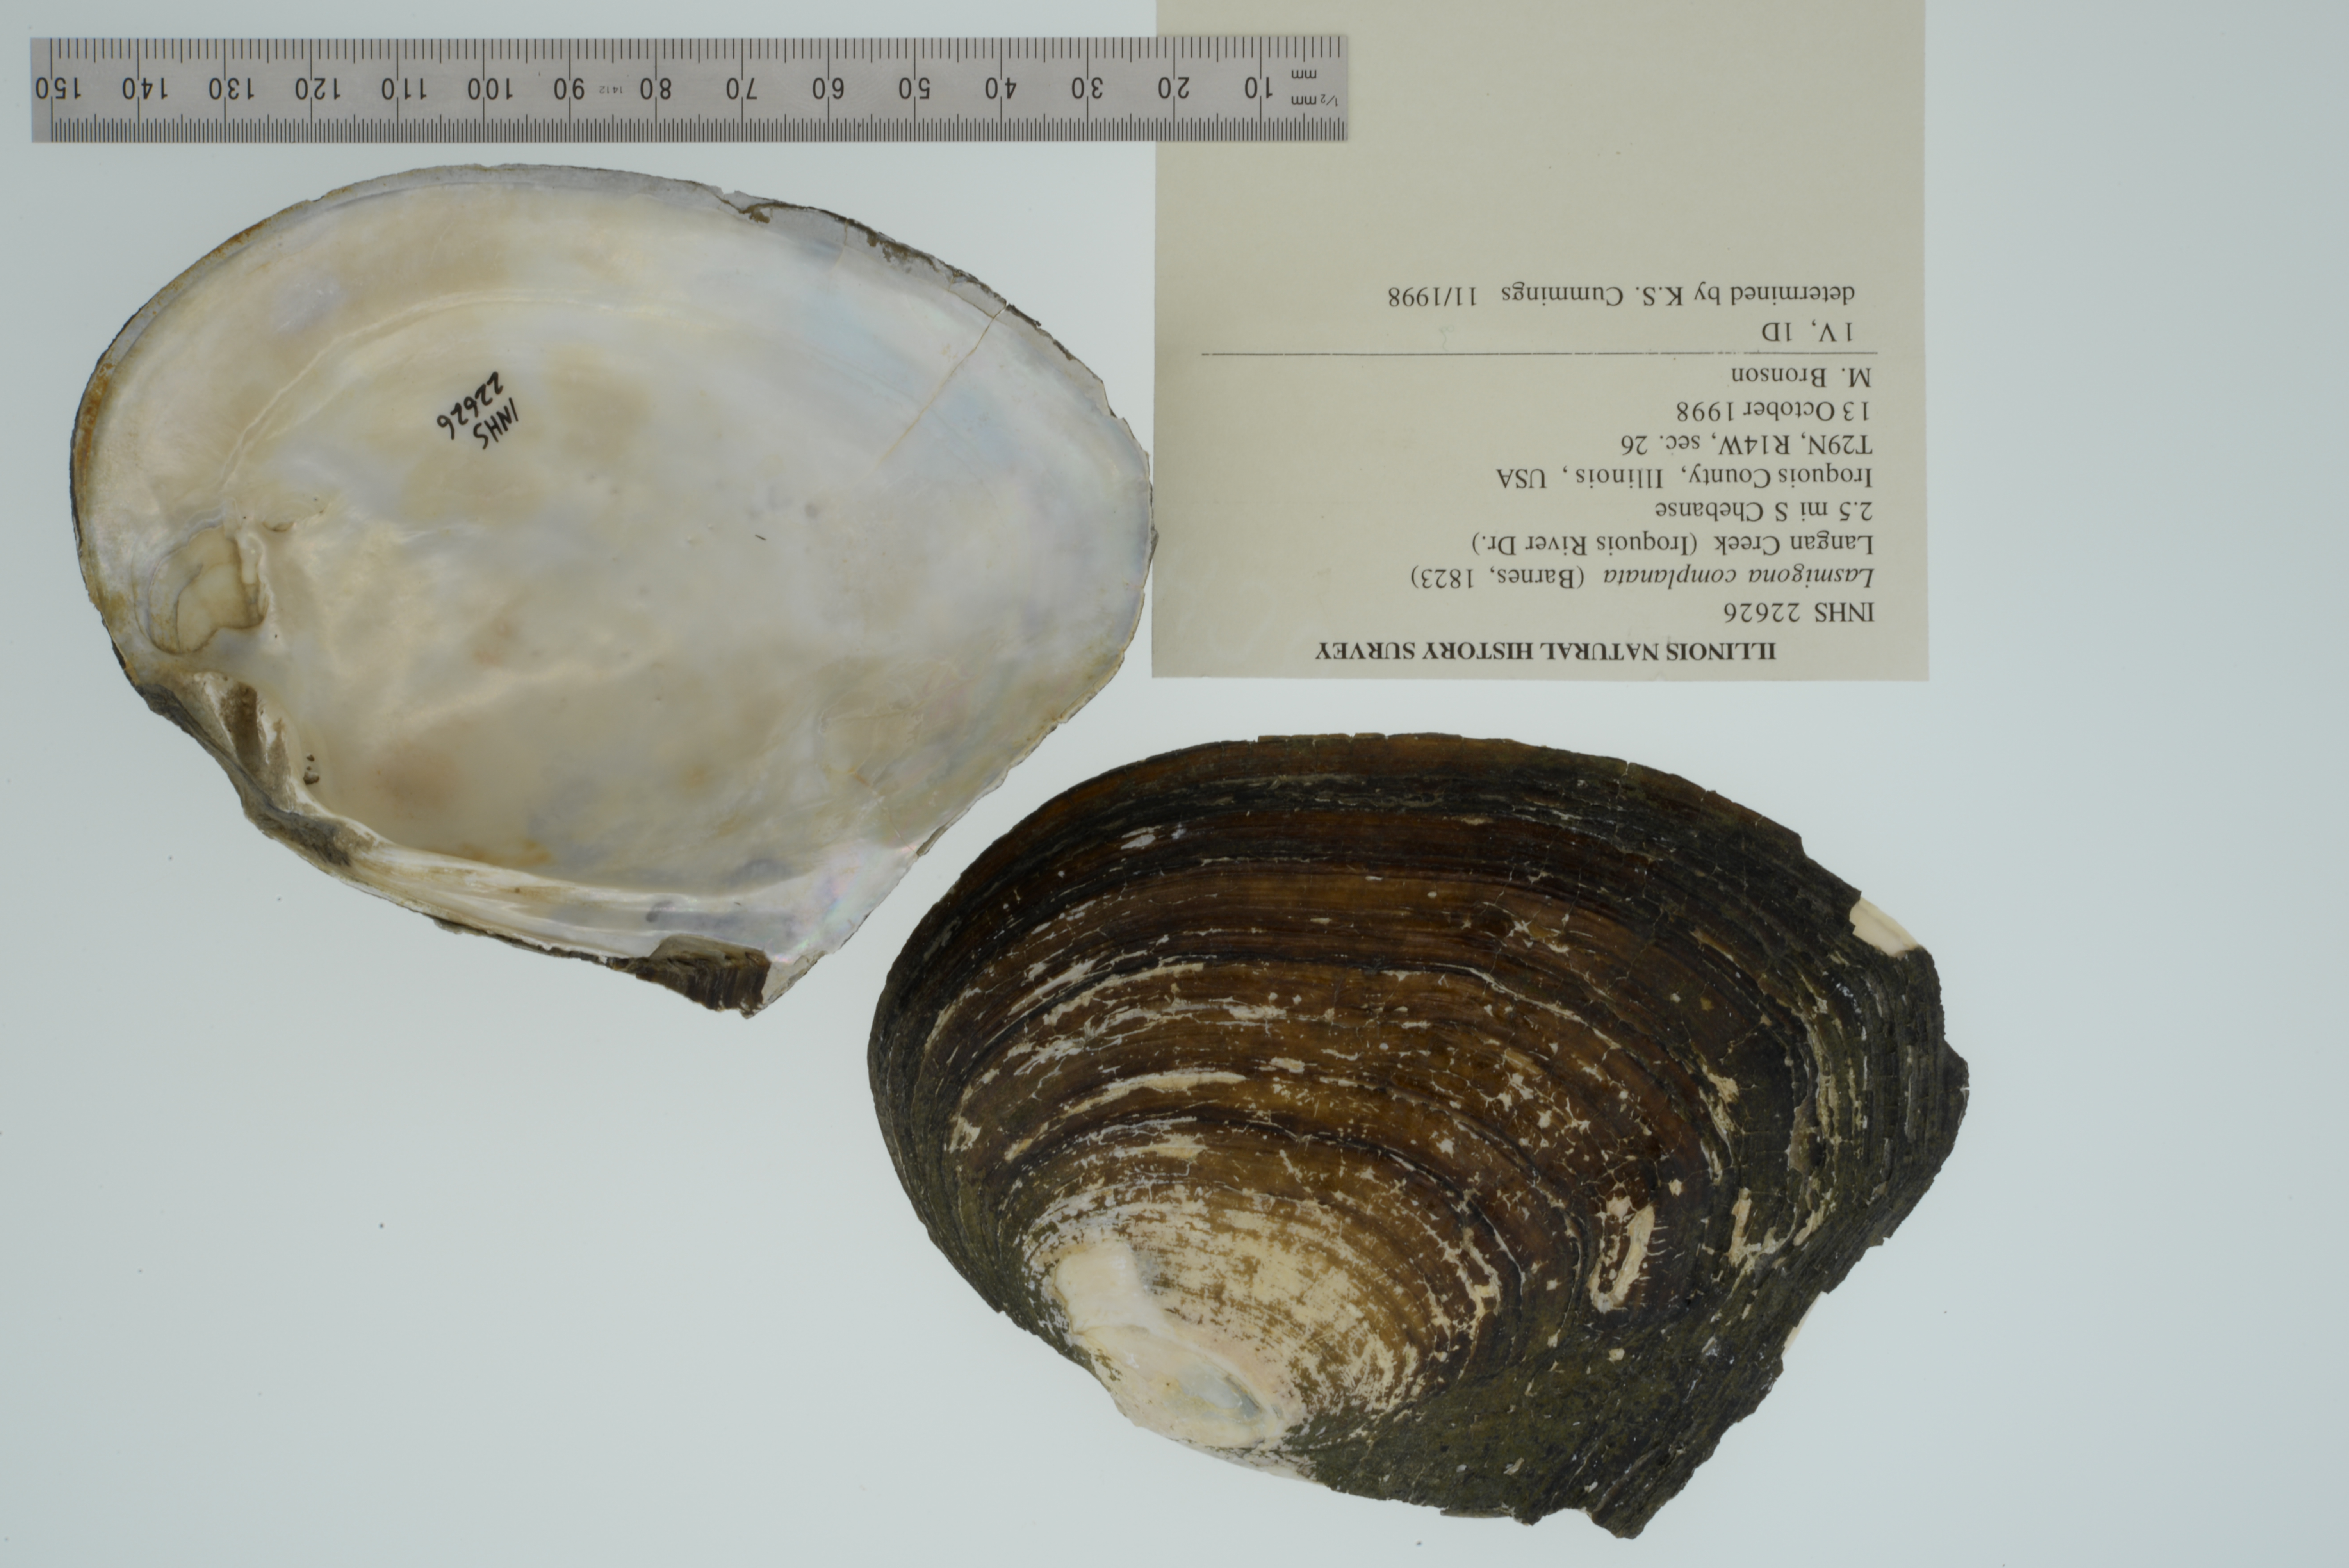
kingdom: Animalia
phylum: Mollusca
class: Bivalvia
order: Unionida
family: Unionidae
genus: Lasmigona
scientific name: Lasmigona complanata
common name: White heelsplitter
